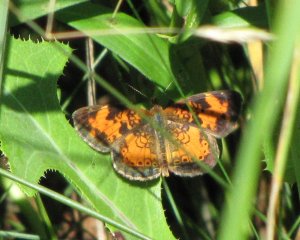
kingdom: Animalia
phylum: Arthropoda
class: Insecta
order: Lepidoptera
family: Nymphalidae
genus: Phyciodes
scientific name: Phyciodes tharos
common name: Northern Crescent
